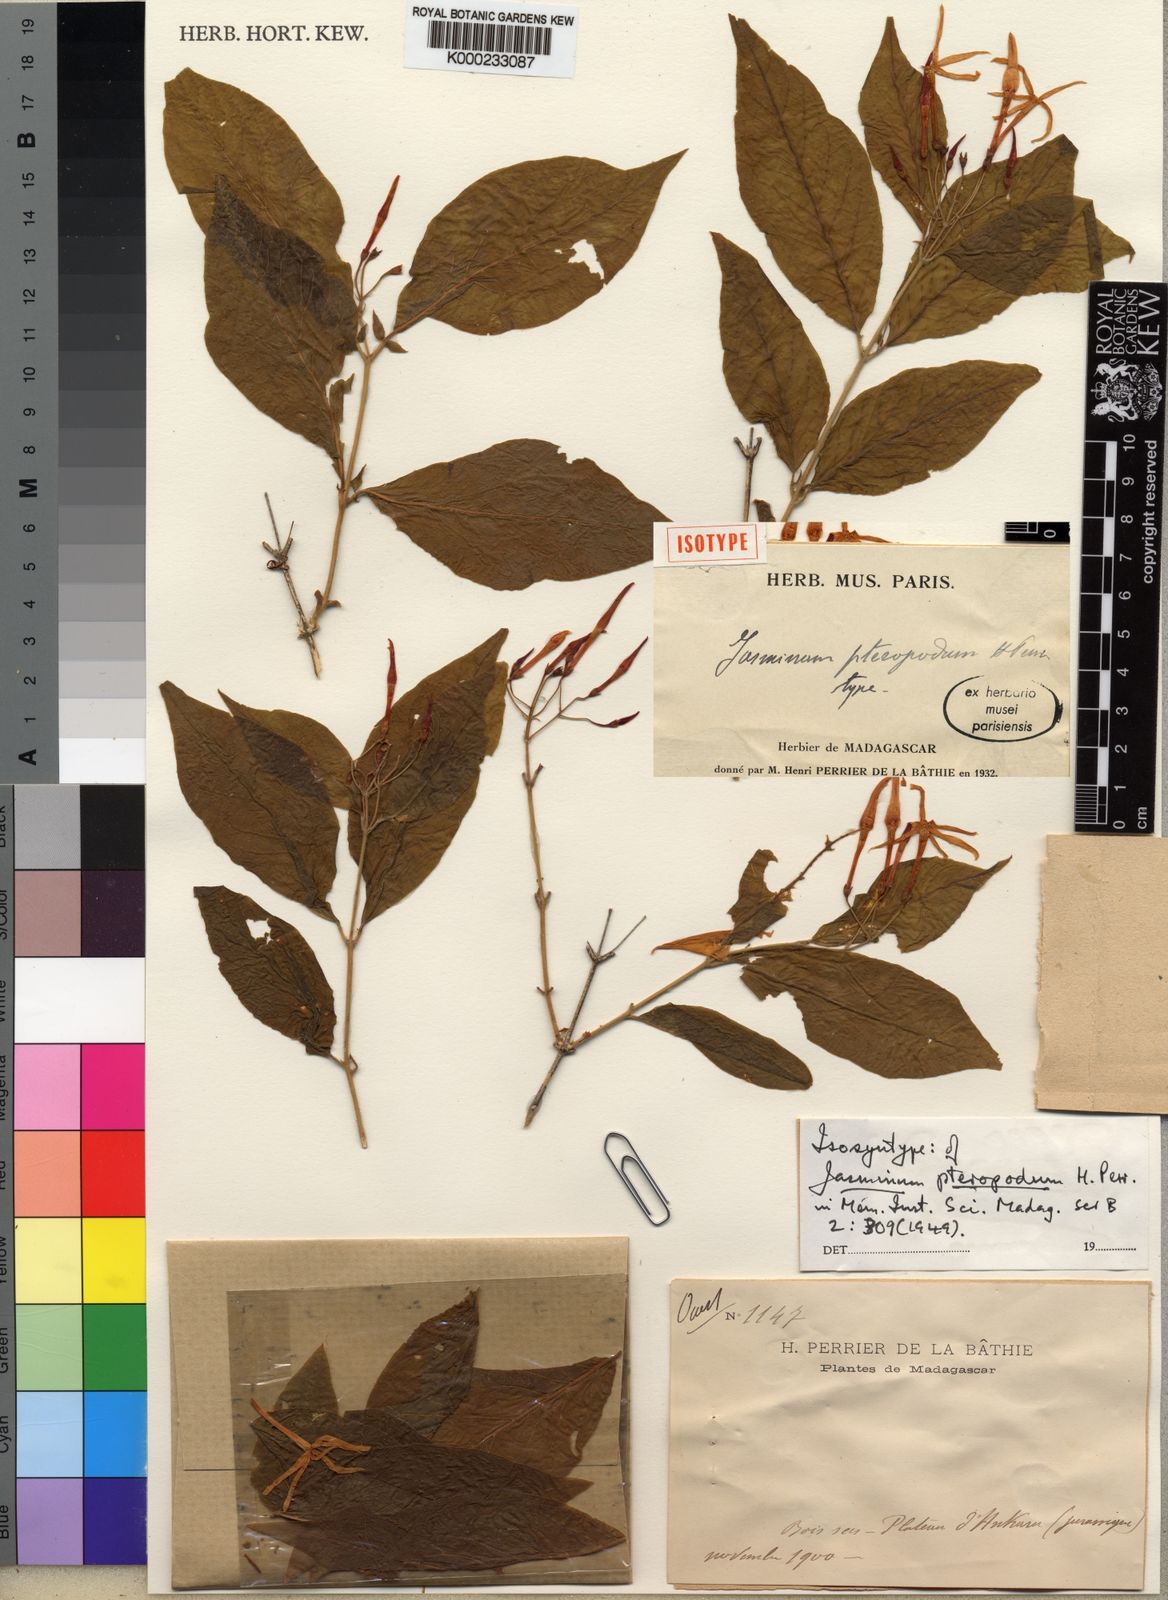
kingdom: Plantae
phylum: Tracheophyta
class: Magnoliopsida
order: Lamiales
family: Oleaceae
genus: Jasminum
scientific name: Jasminum pteropodum
